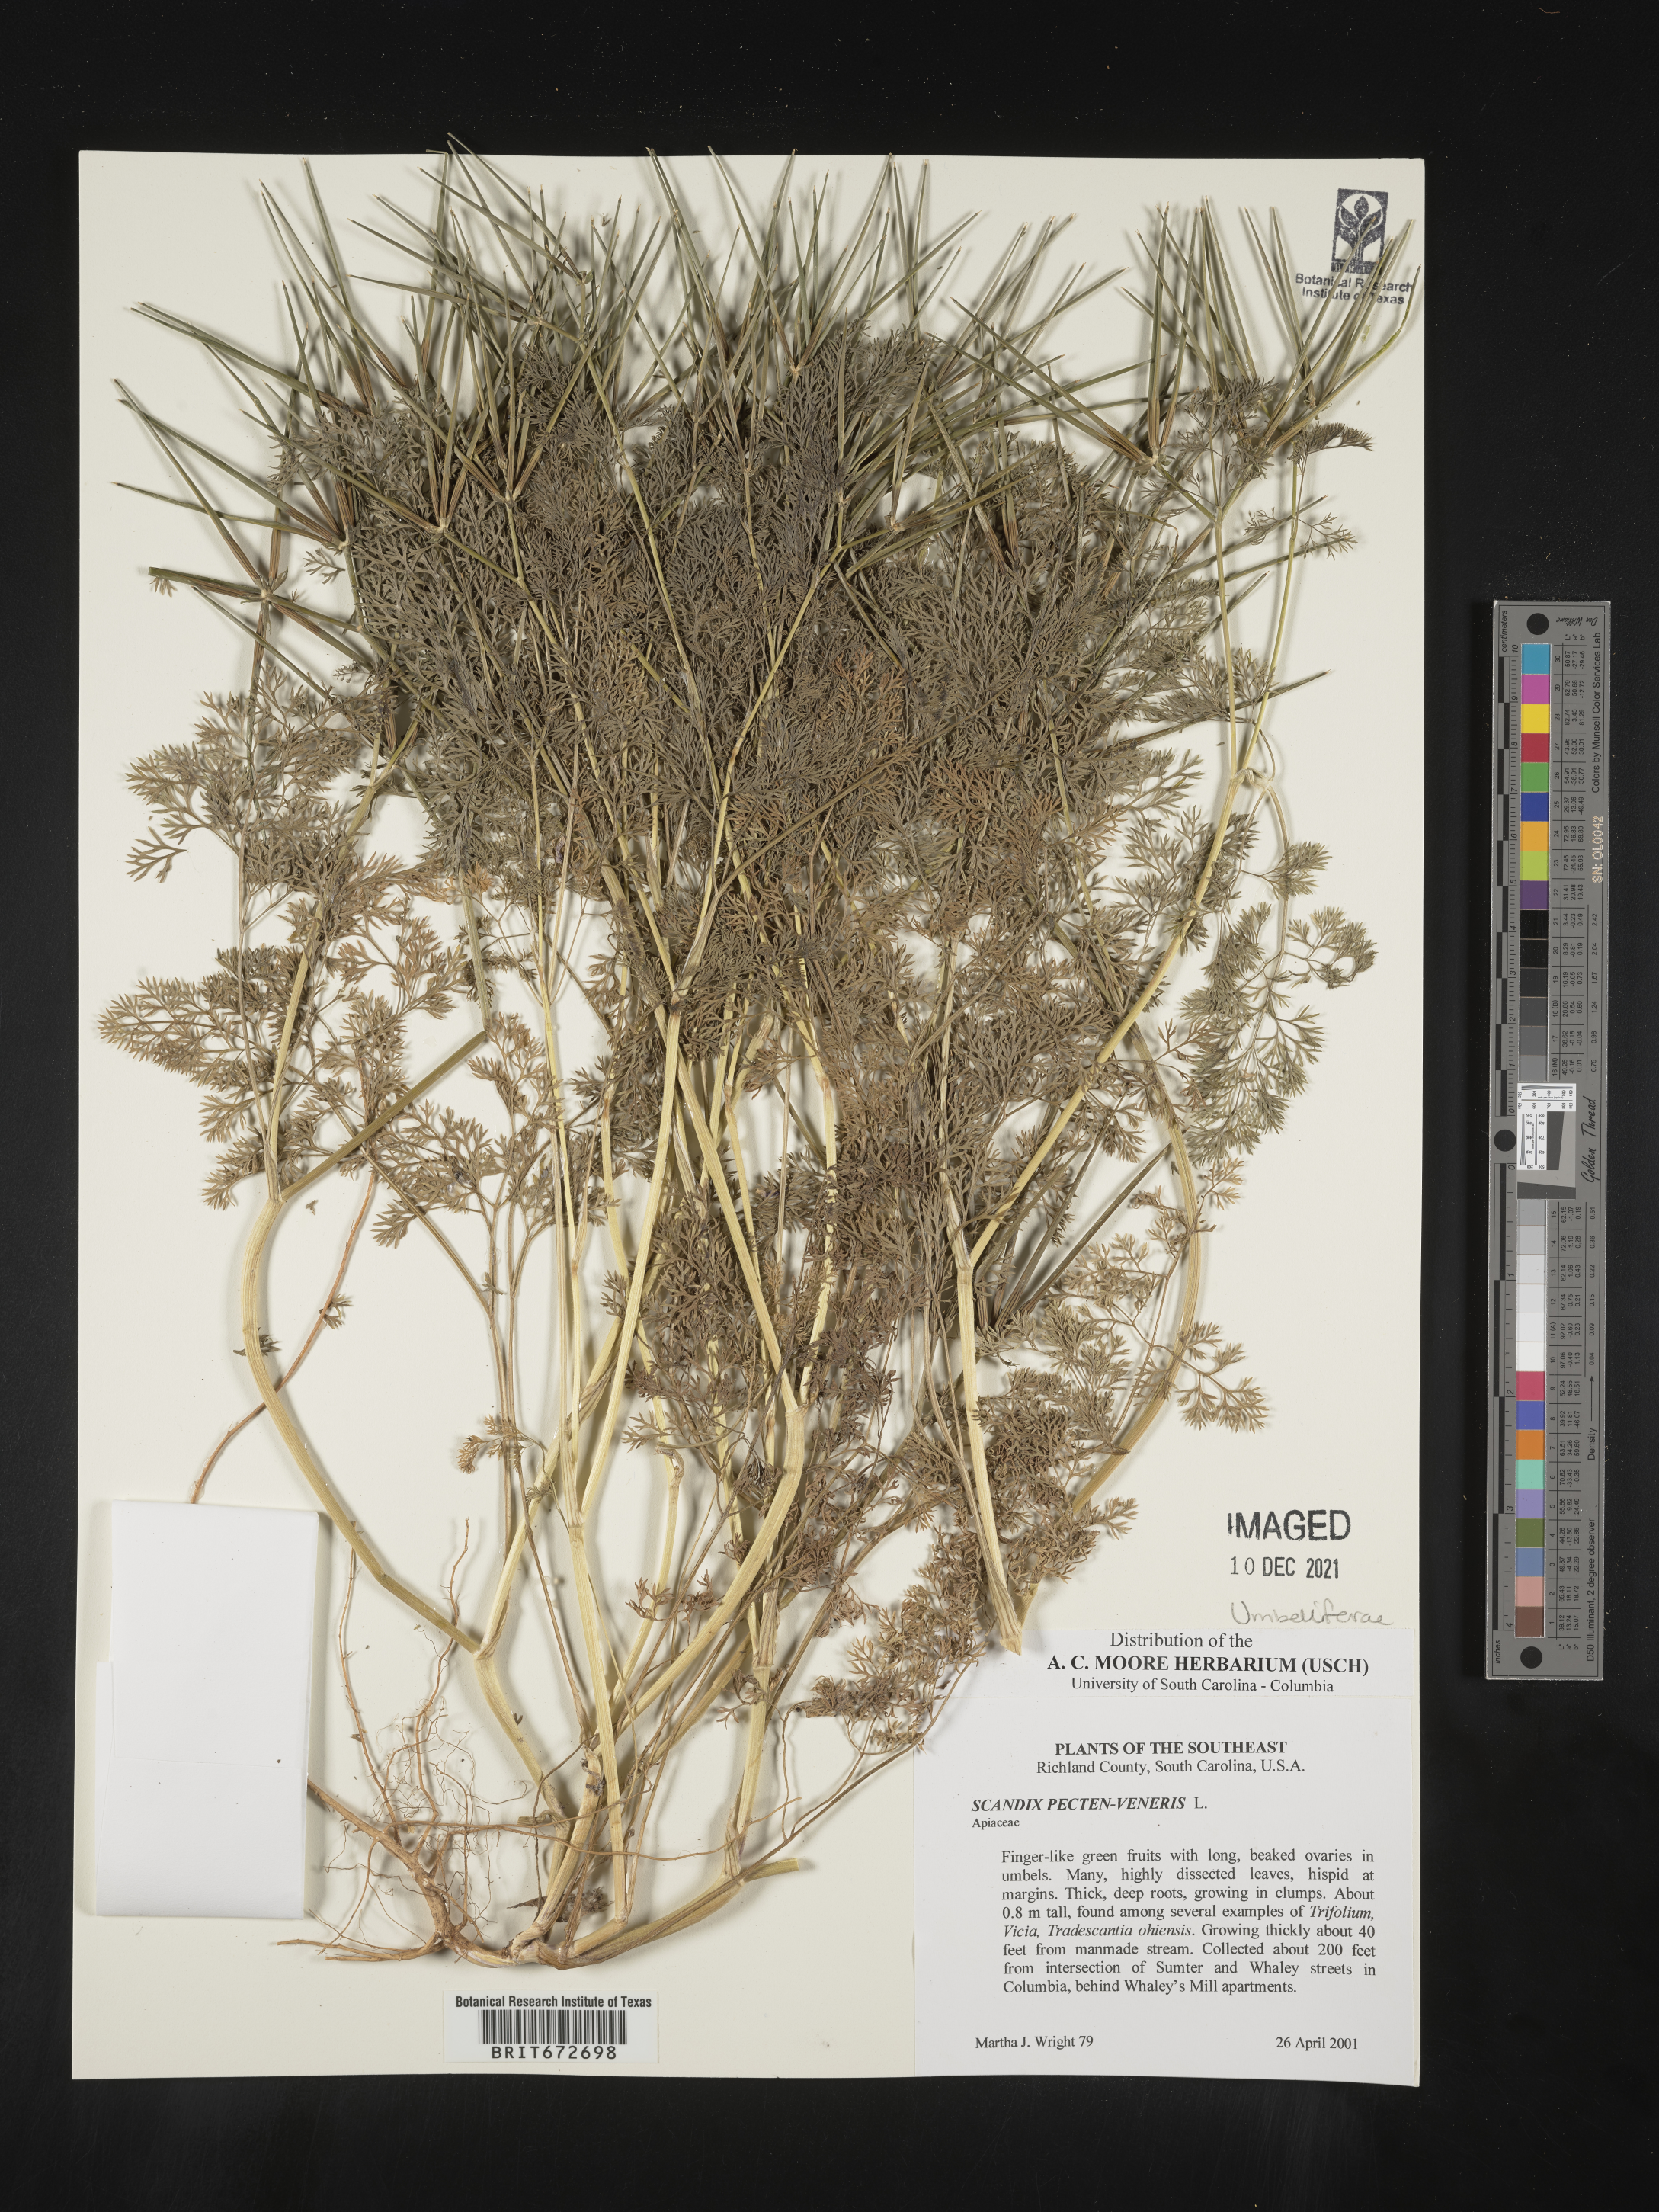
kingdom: Plantae
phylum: Tracheophyta
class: Magnoliopsida
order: Apiales
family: Apiaceae
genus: Scandix
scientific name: Scandix
